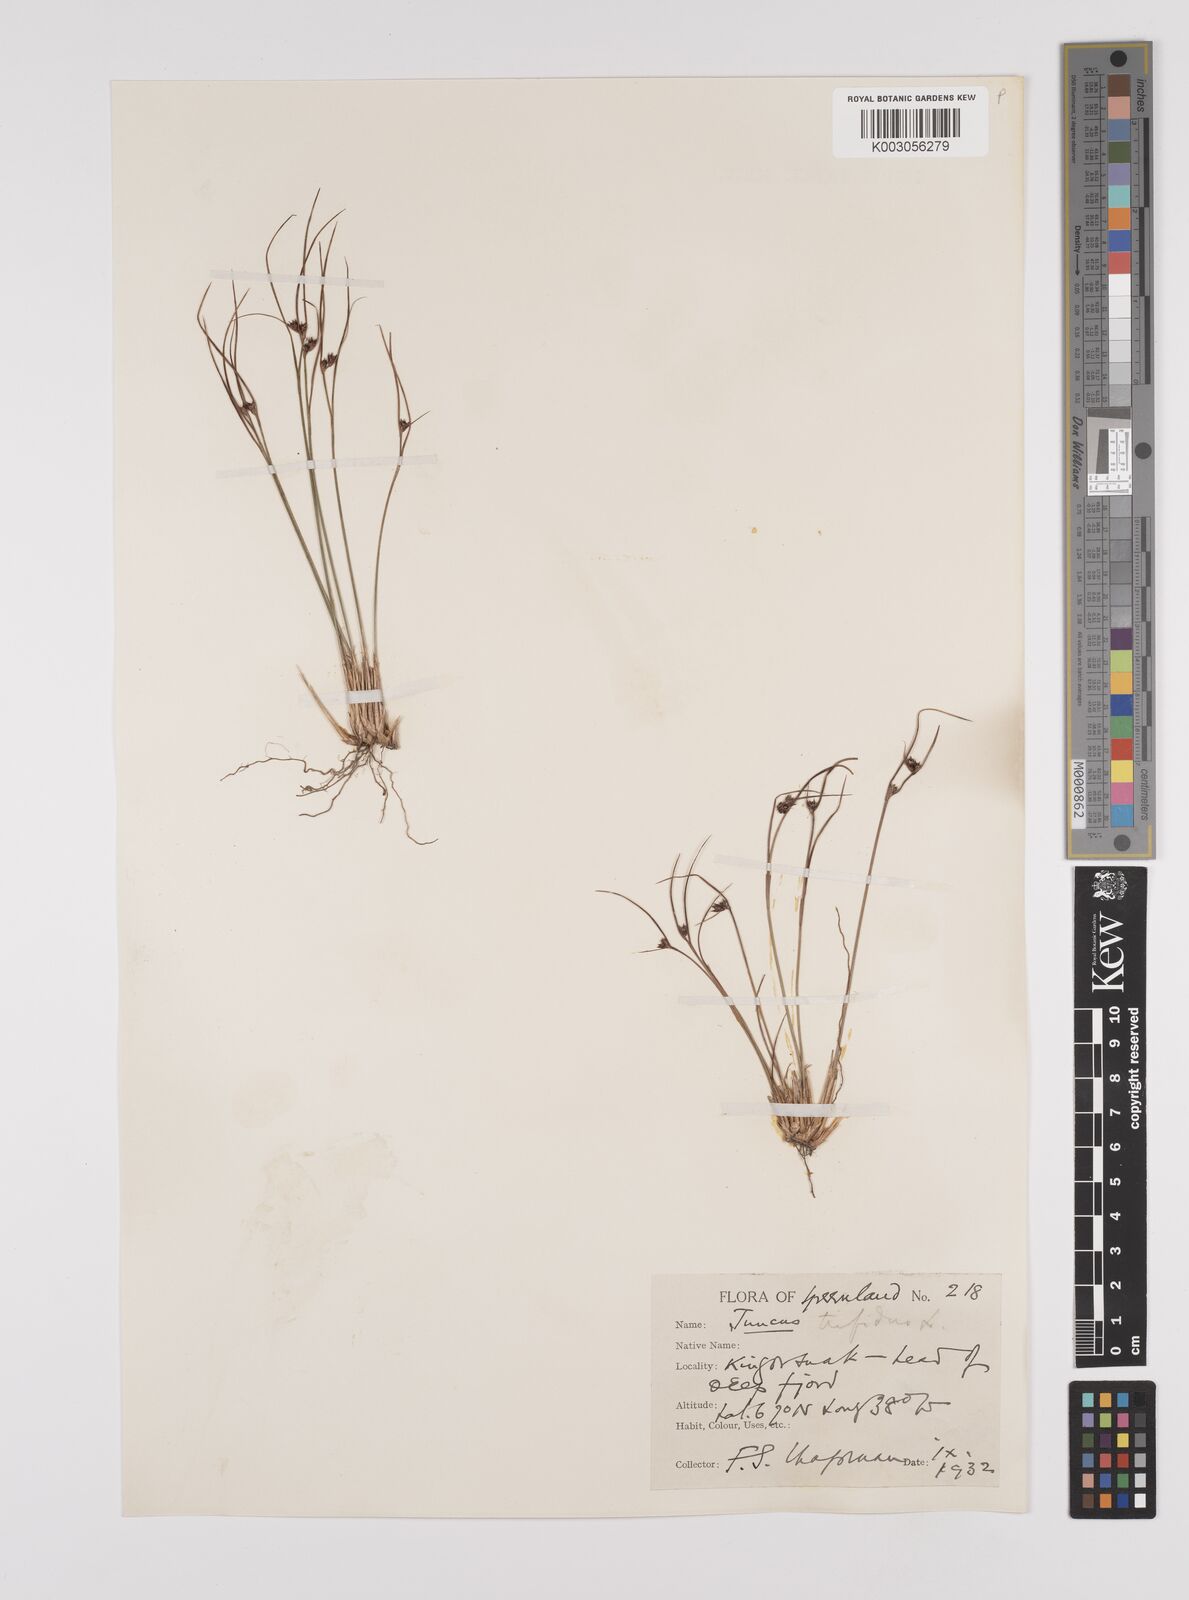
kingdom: Plantae
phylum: Tracheophyta
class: Liliopsida
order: Poales
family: Juncaceae
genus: Oreojuncus
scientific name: Oreojuncus trifidus
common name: Highland rush
